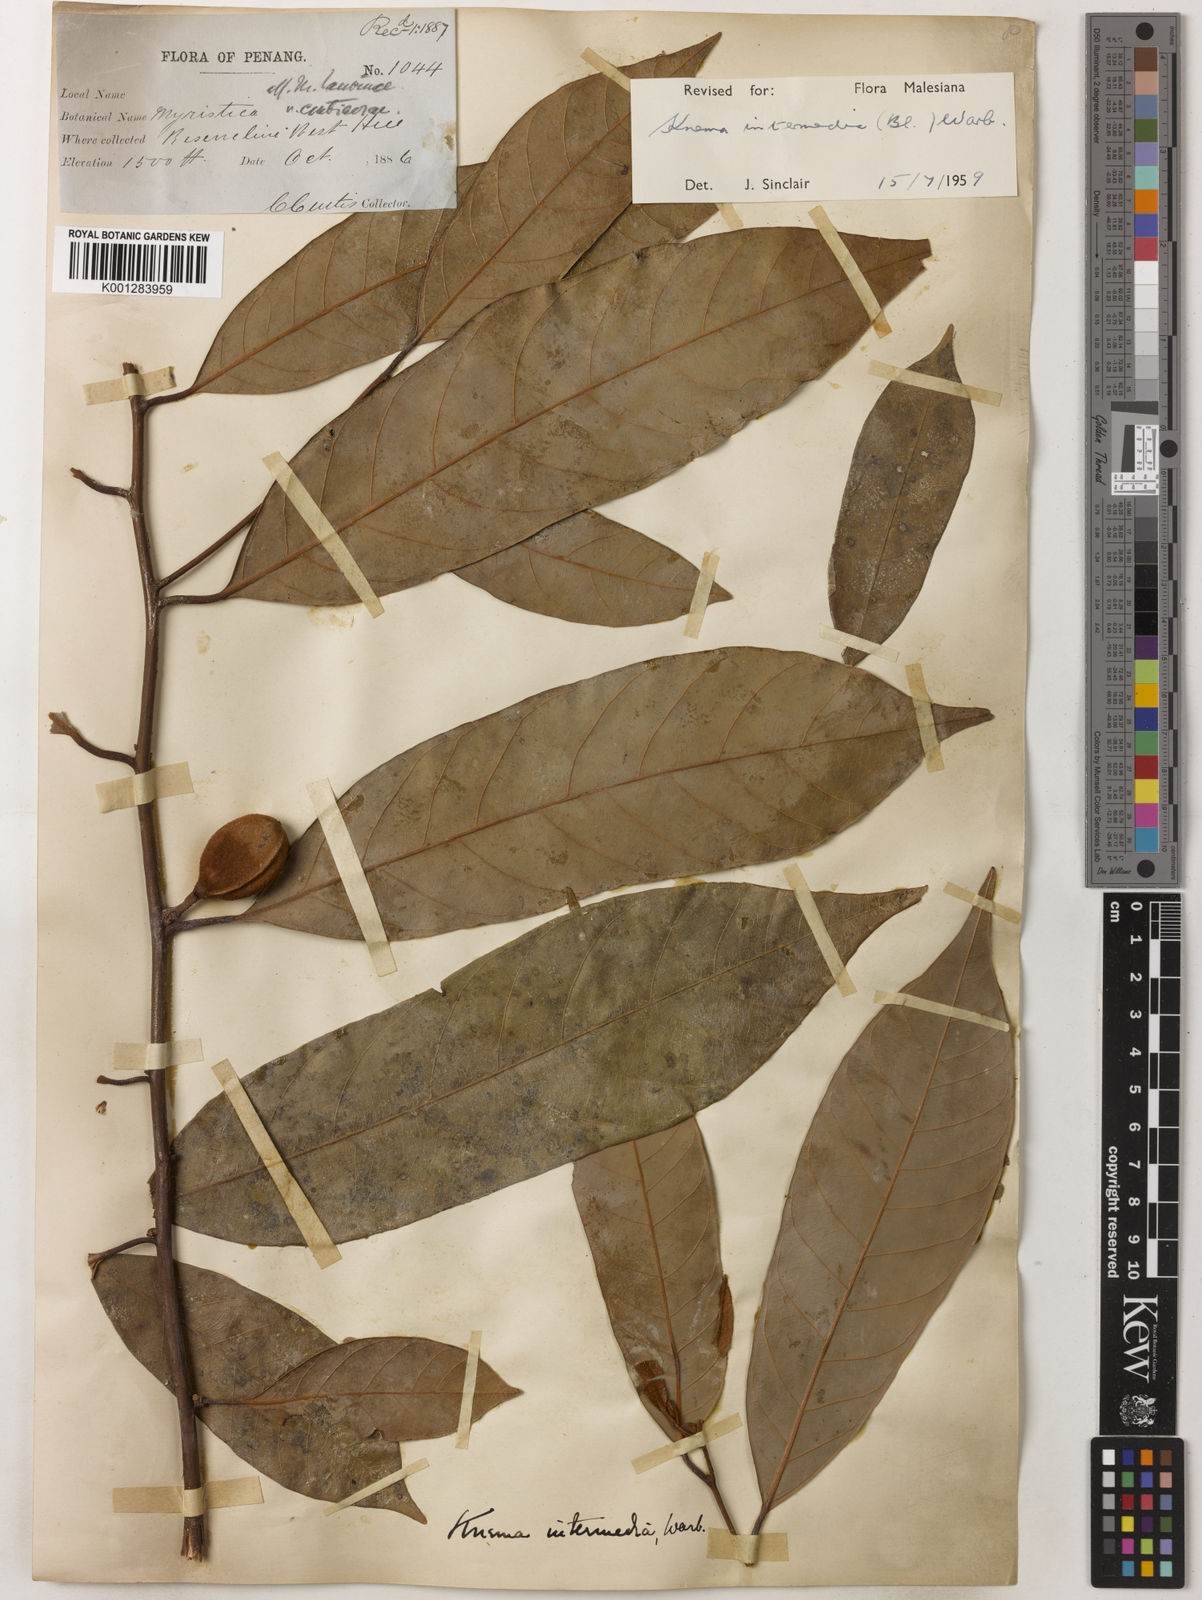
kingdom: Plantae
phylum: Tracheophyta
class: Magnoliopsida
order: Magnoliales
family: Myristicaceae
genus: Knema
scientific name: Knema intermedia
